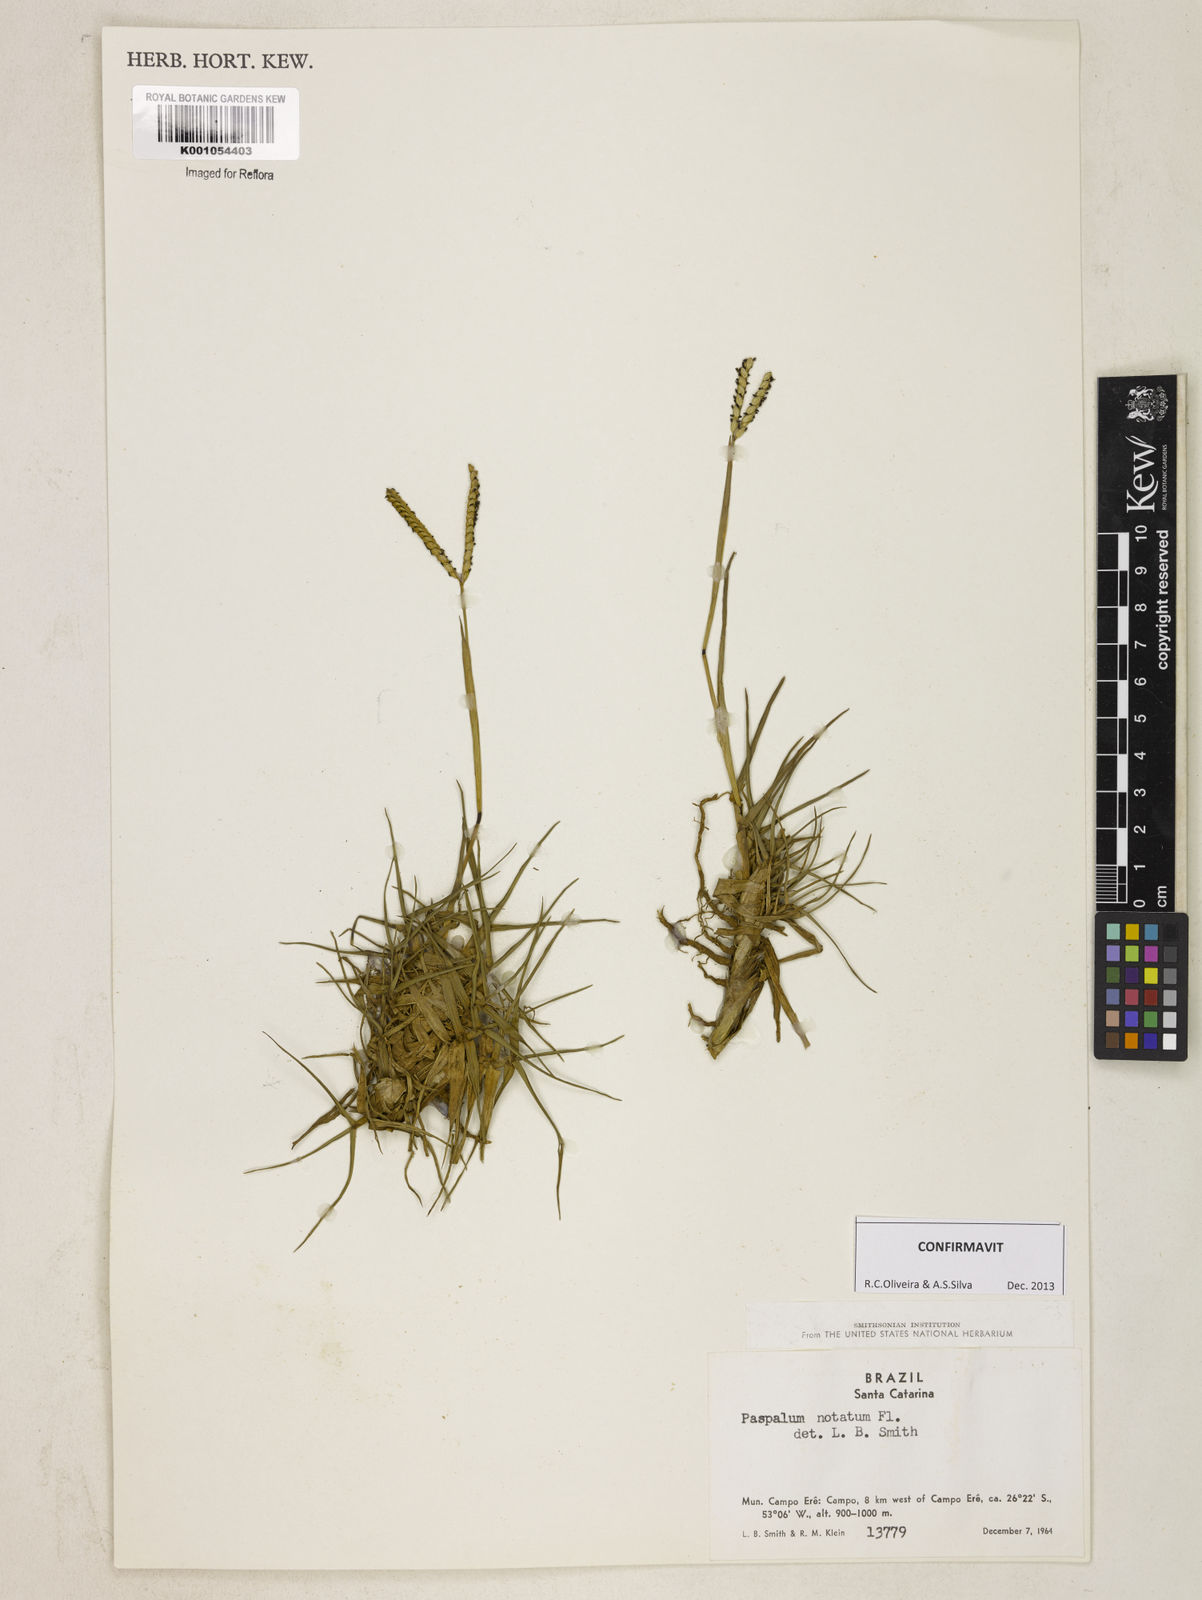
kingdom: Plantae
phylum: Tracheophyta
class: Liliopsida
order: Poales
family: Poaceae
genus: Paspalum
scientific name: Paspalum
